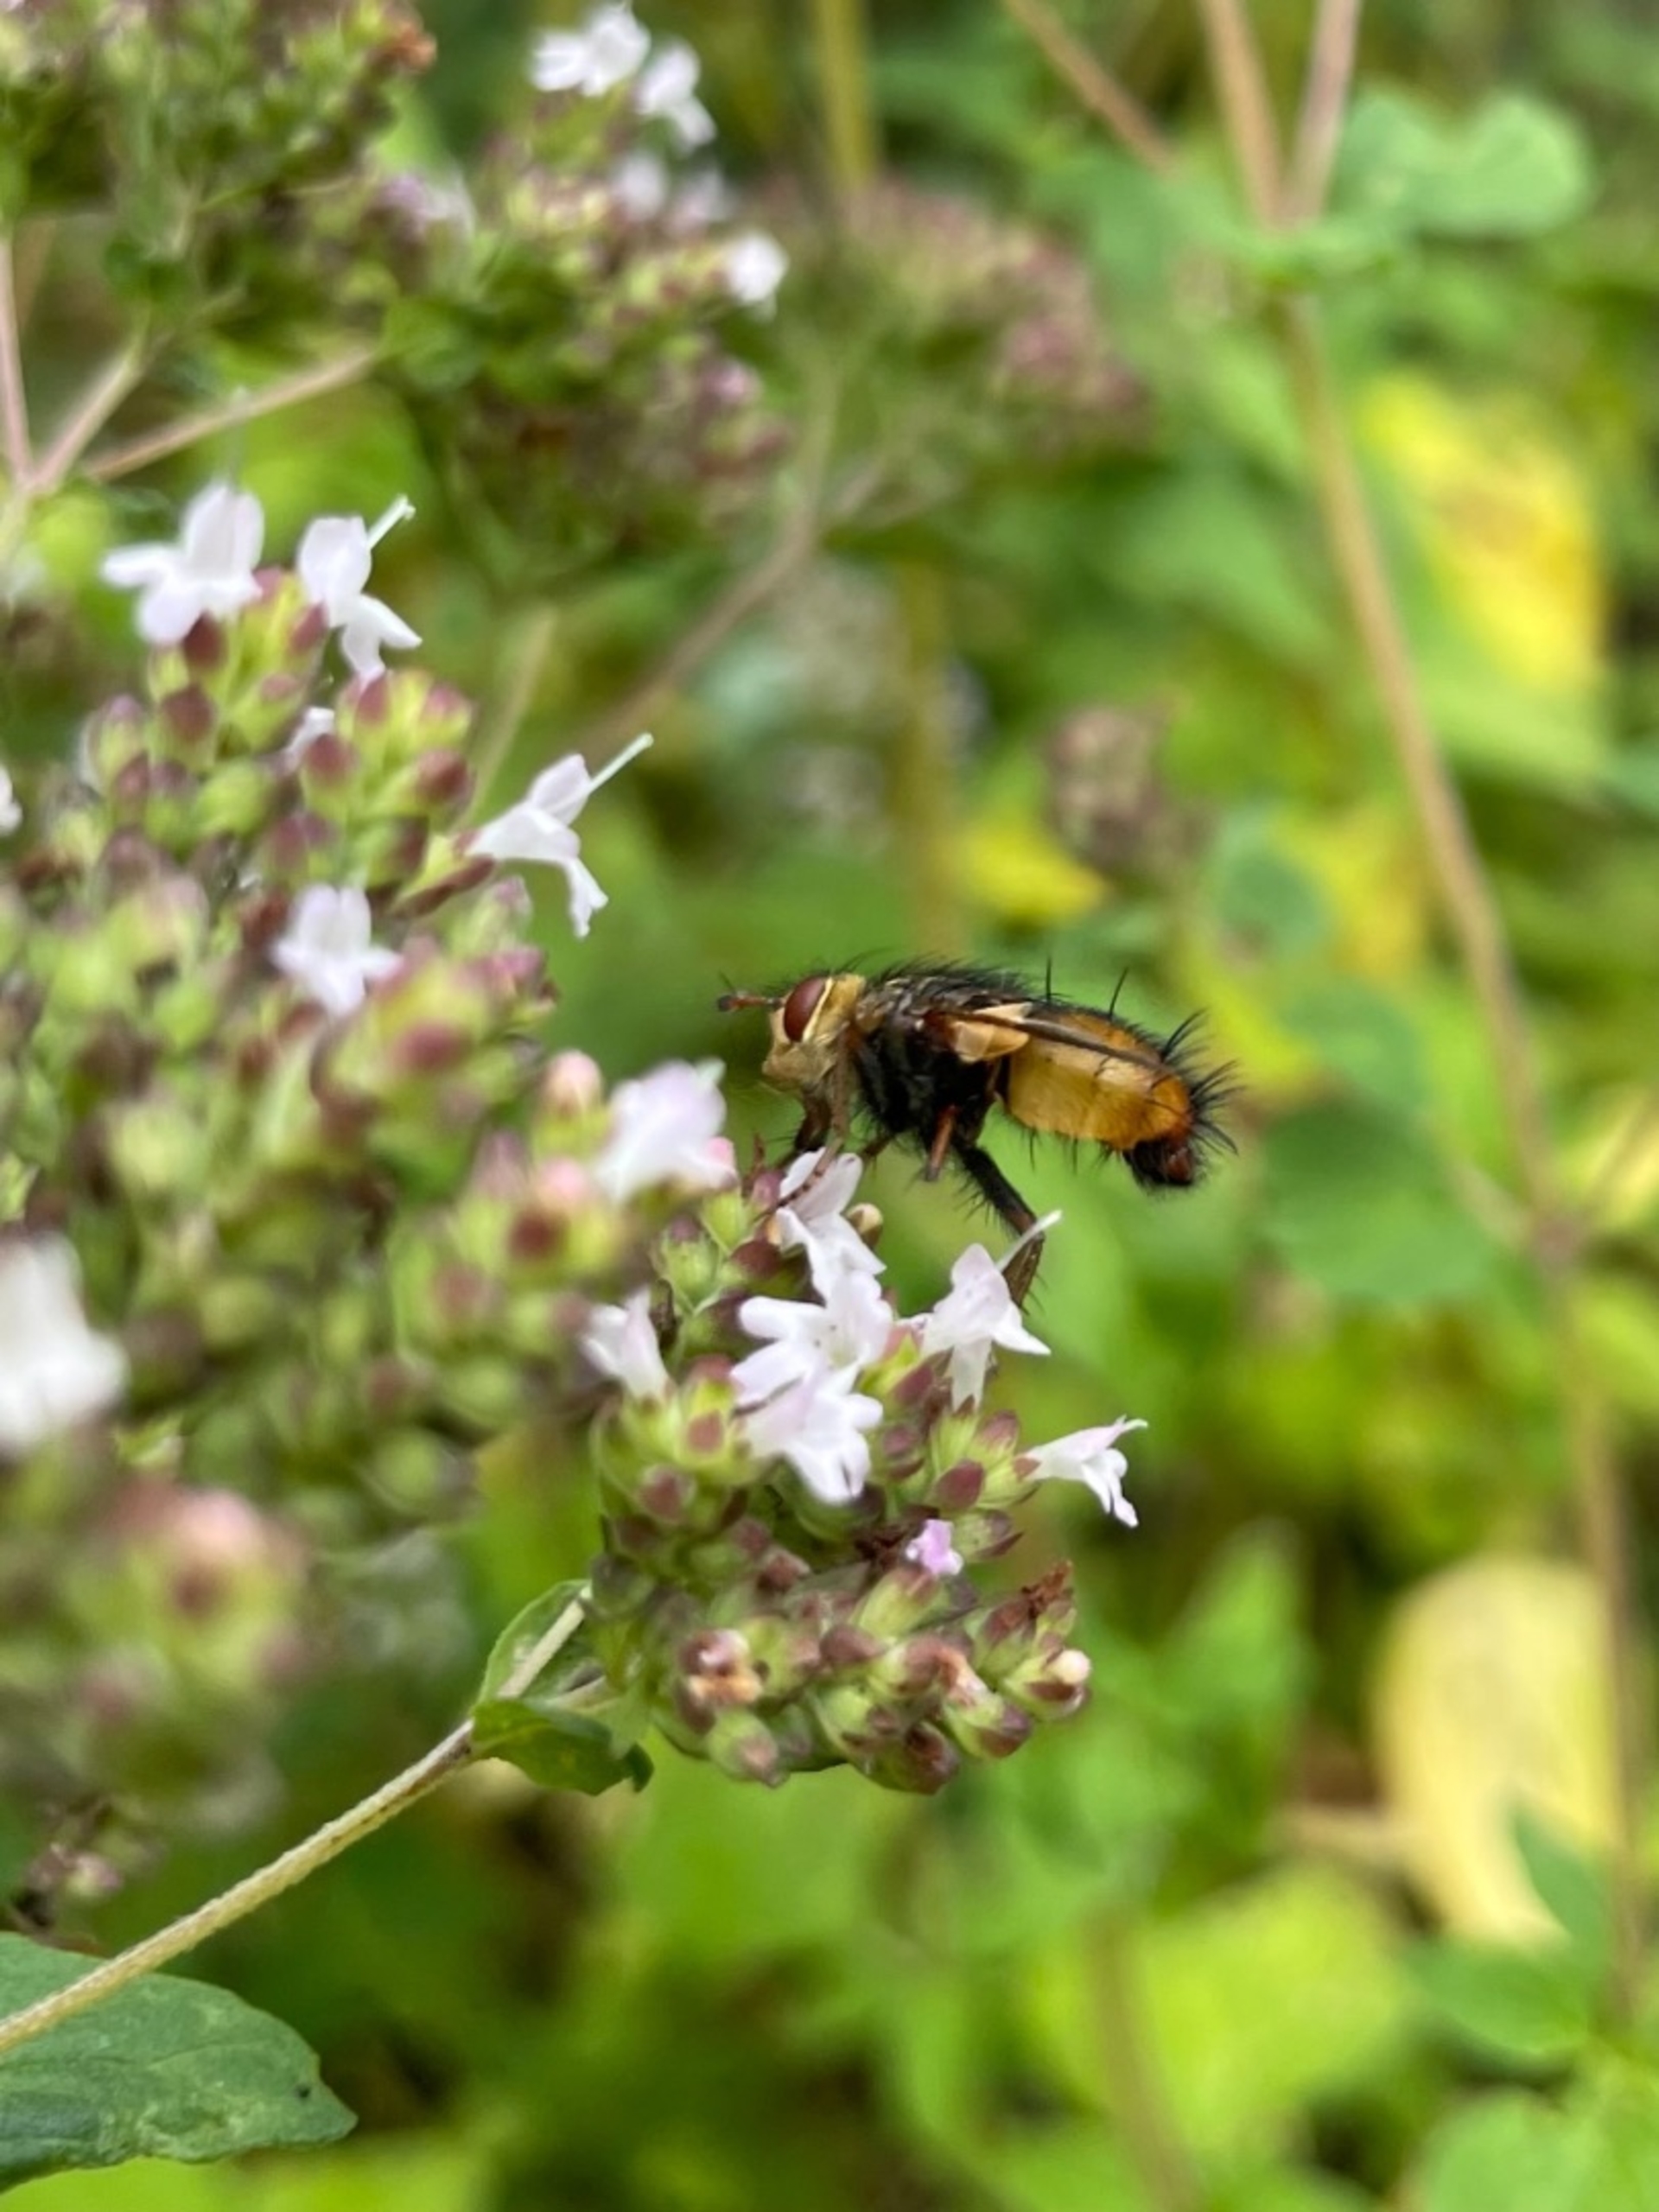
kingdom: Animalia
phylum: Arthropoda
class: Insecta
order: Diptera
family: Tachinidae
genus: Tachina
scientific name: Tachina fera
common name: Mellemfluen oskar
